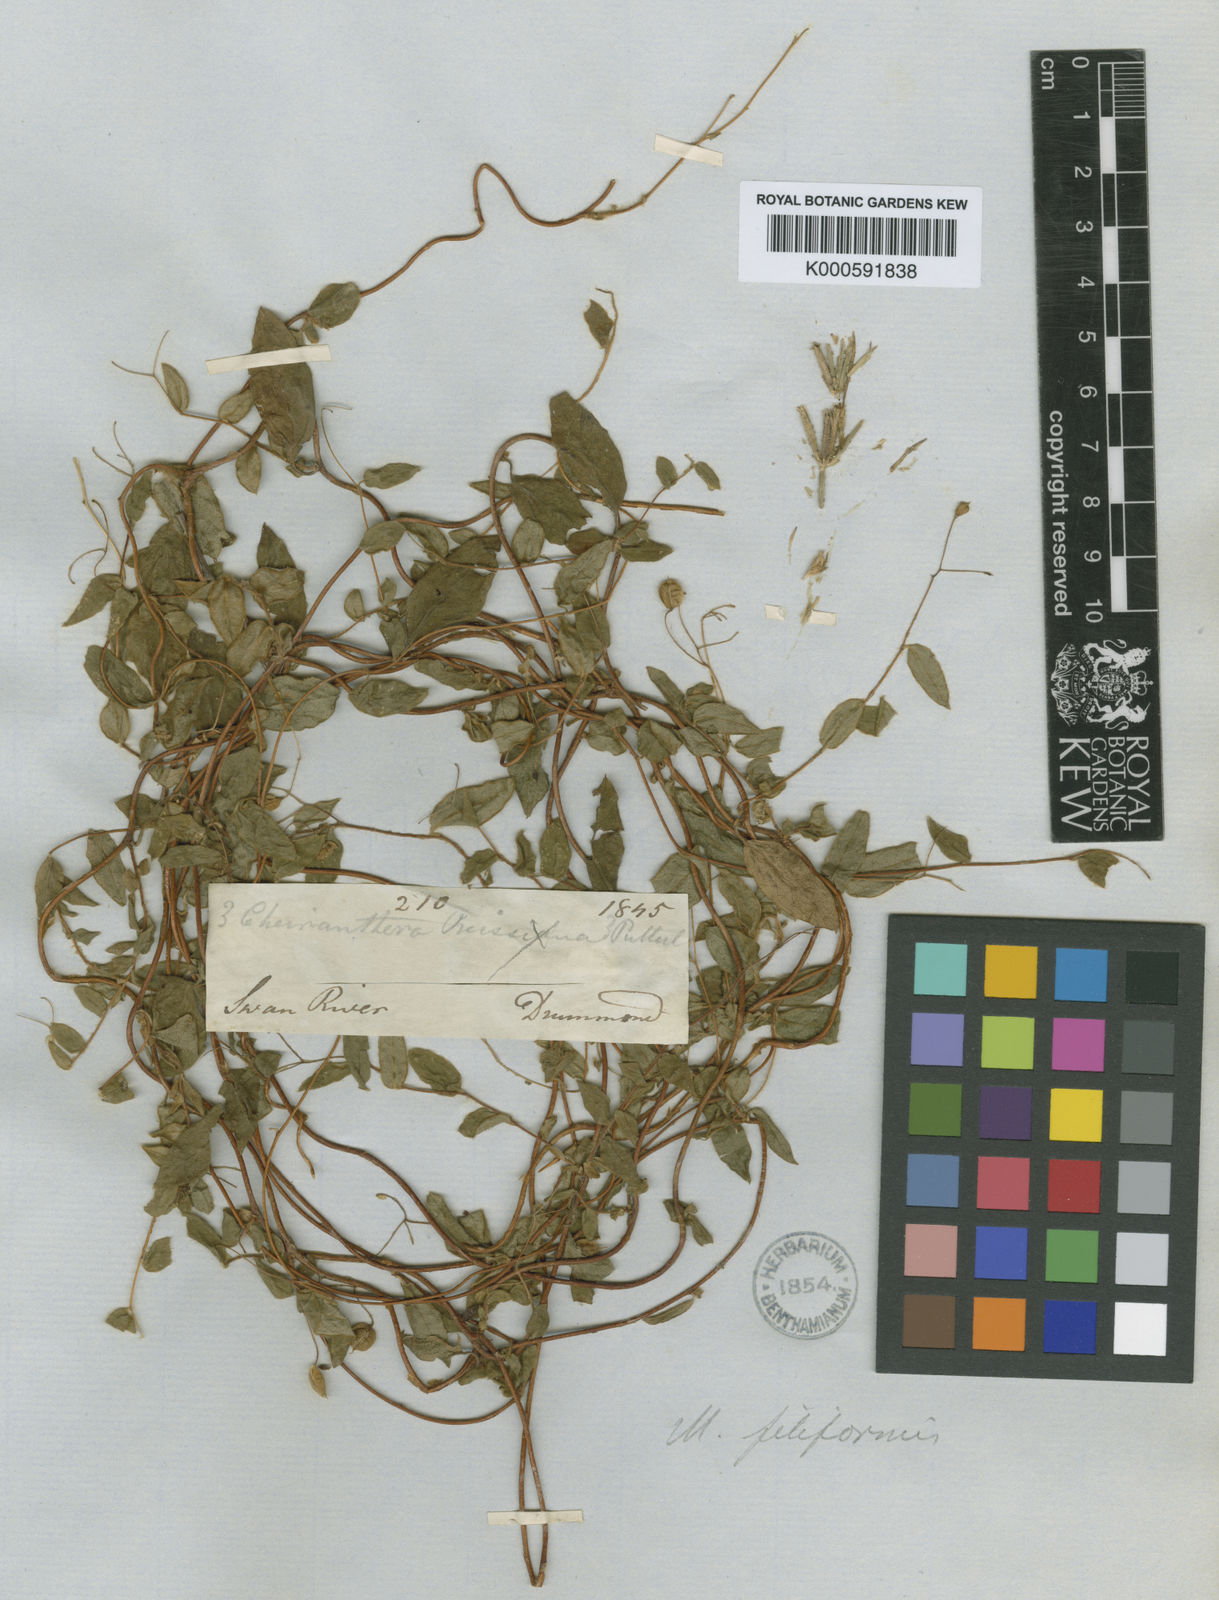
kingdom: Plantae
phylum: Tracheophyta
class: Magnoliopsida
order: Apiales
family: Pittosporaceae
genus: Marianthus
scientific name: Marianthus granulatus
